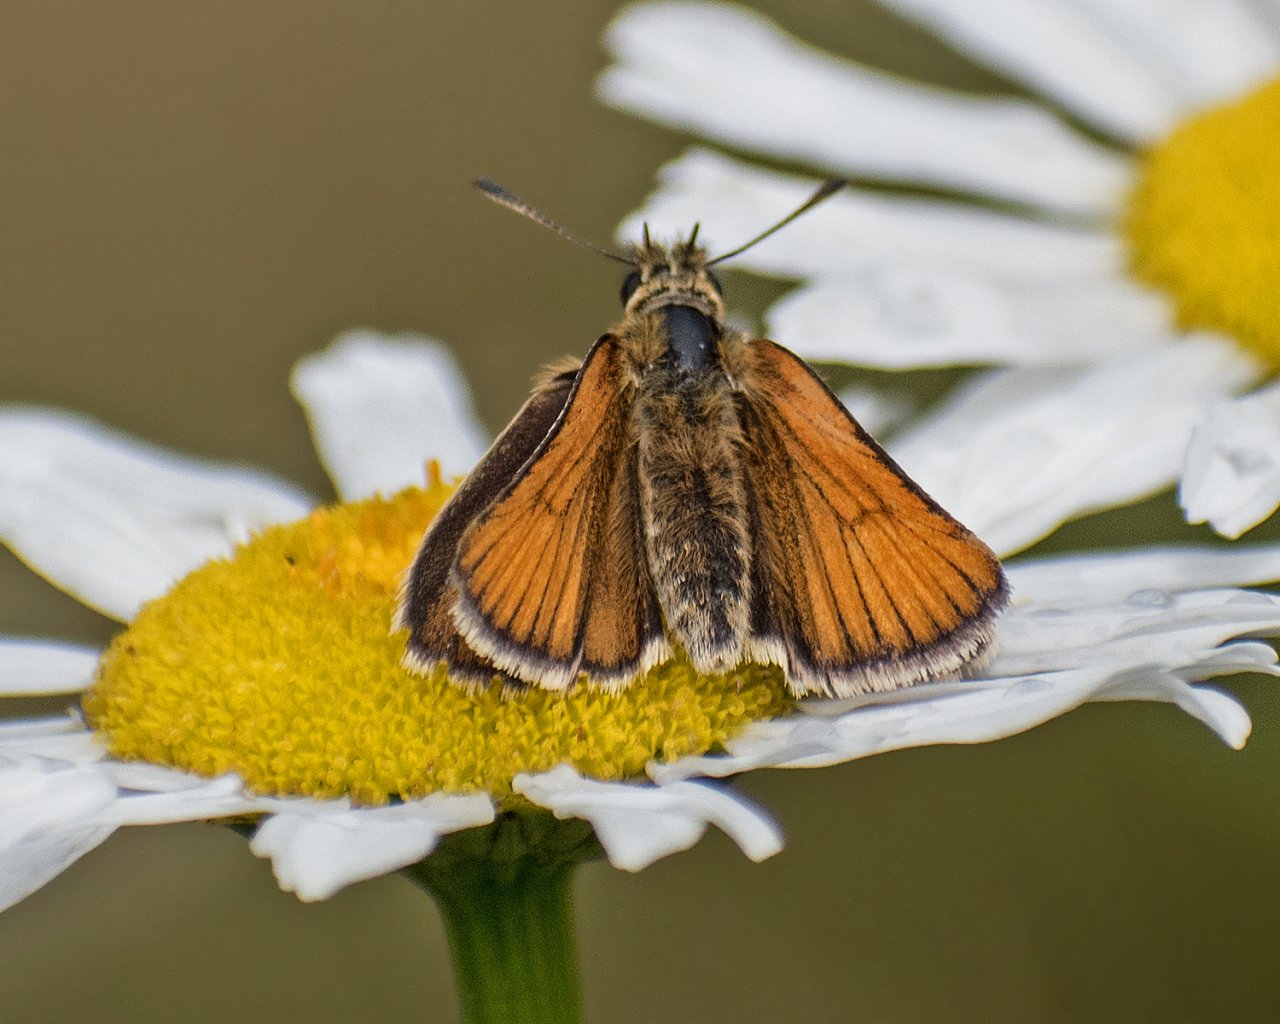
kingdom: Animalia
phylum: Arthropoda
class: Insecta
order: Lepidoptera
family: Hesperiidae
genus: Thymelicus
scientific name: Thymelicus lineola
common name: European Skipper
